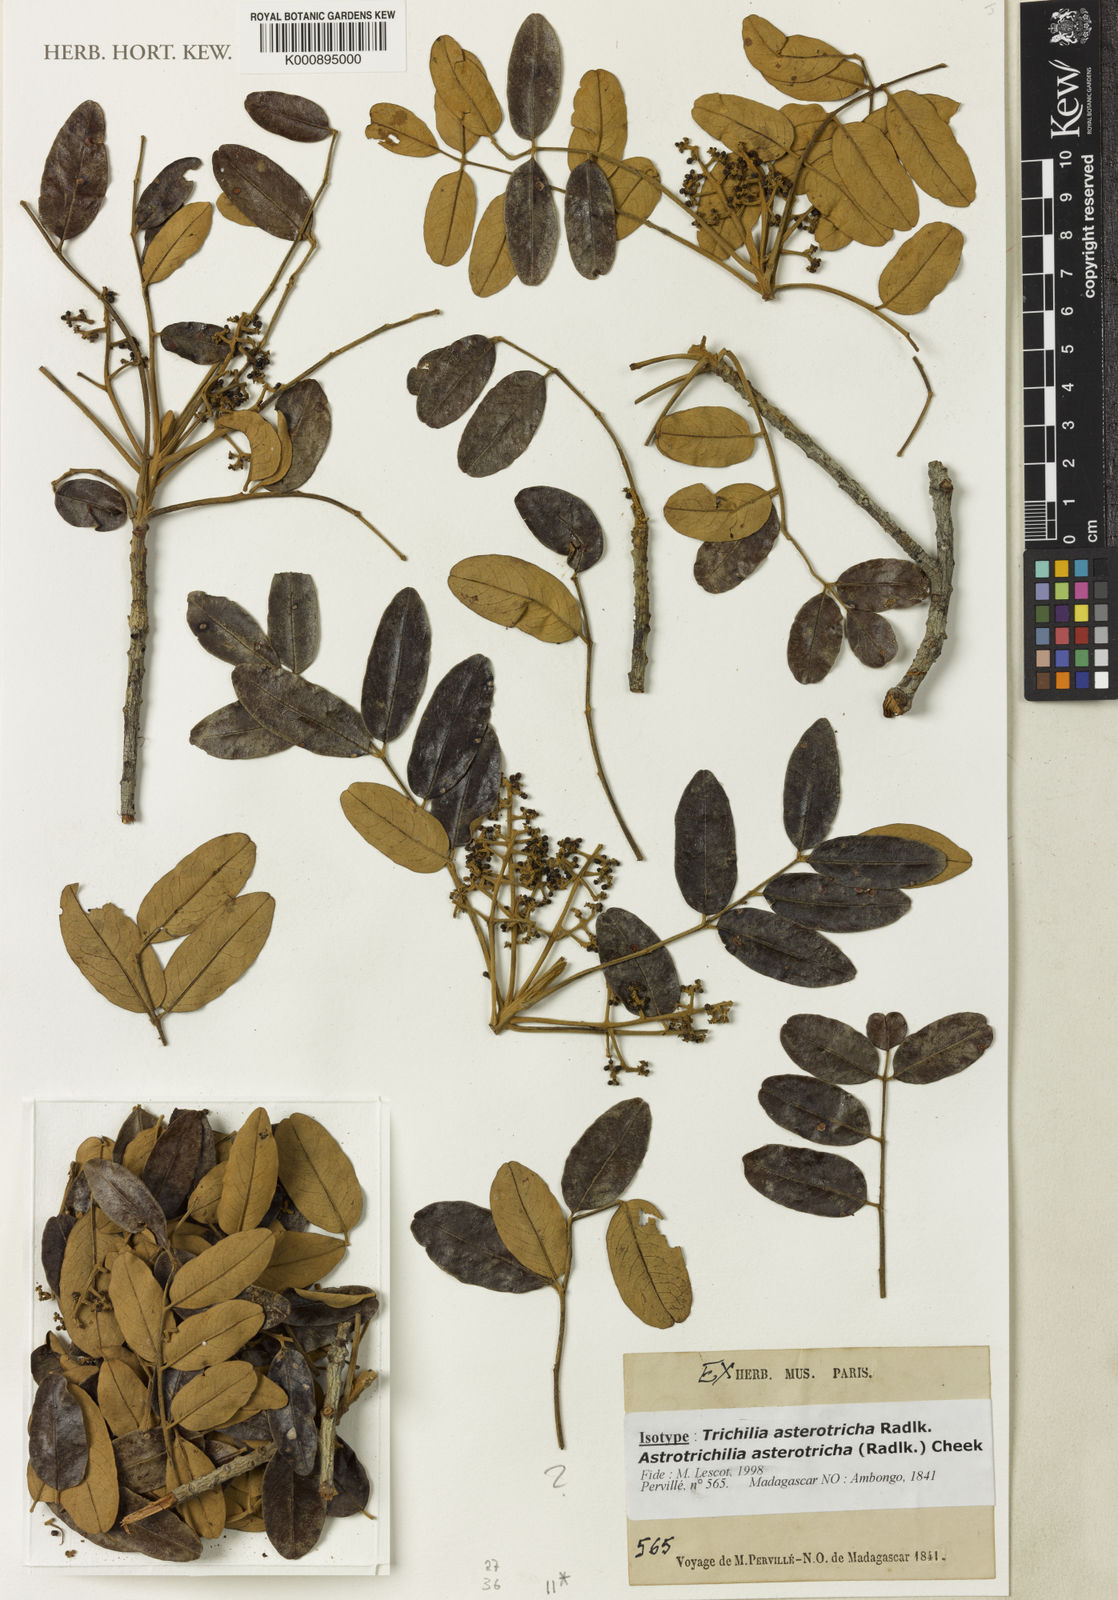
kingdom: Plantae
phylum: Tracheophyta
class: Magnoliopsida
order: Sapindales
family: Meliaceae
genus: Astrotrichilia
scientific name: Astrotrichilia asterotricha
